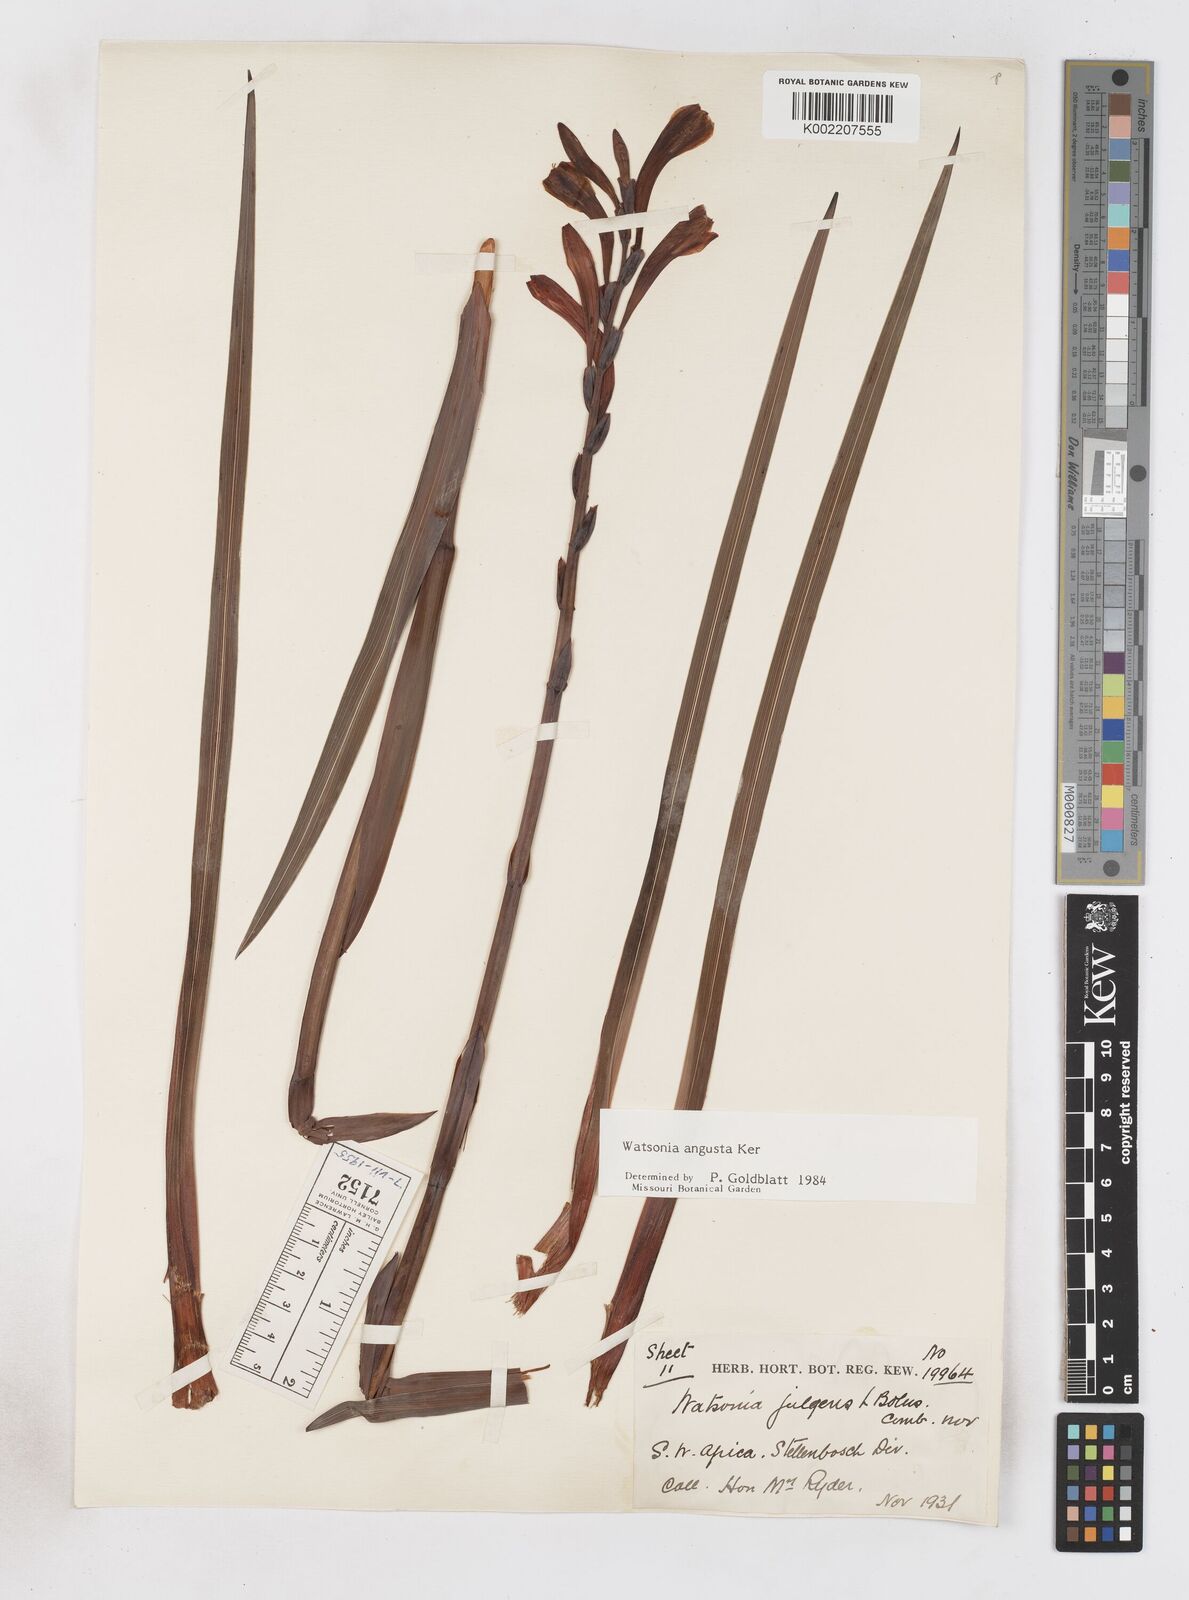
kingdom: Plantae
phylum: Tracheophyta
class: Liliopsida
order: Asparagales
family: Iridaceae
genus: Watsonia
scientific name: Watsonia angusta
